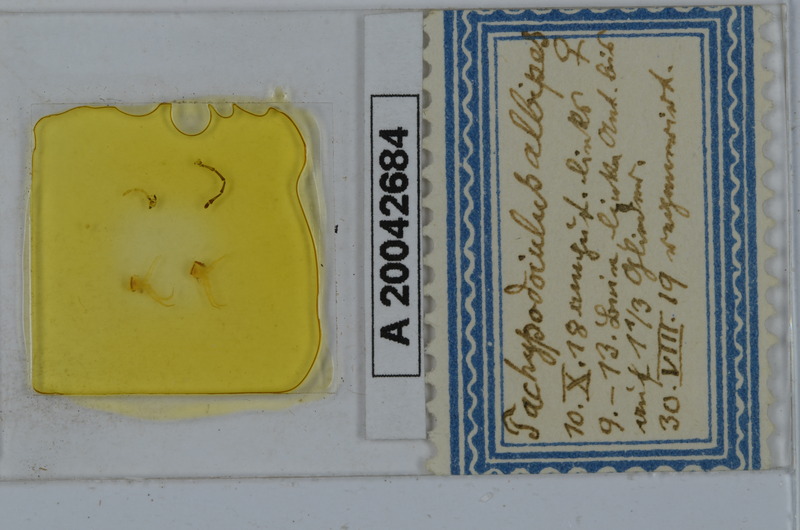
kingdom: Animalia
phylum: Arthropoda
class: Diplopoda
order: Julida
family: Julidae
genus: Tachypodoiulus
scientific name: Tachypodoiulus niger
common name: White-legged snake millipede
